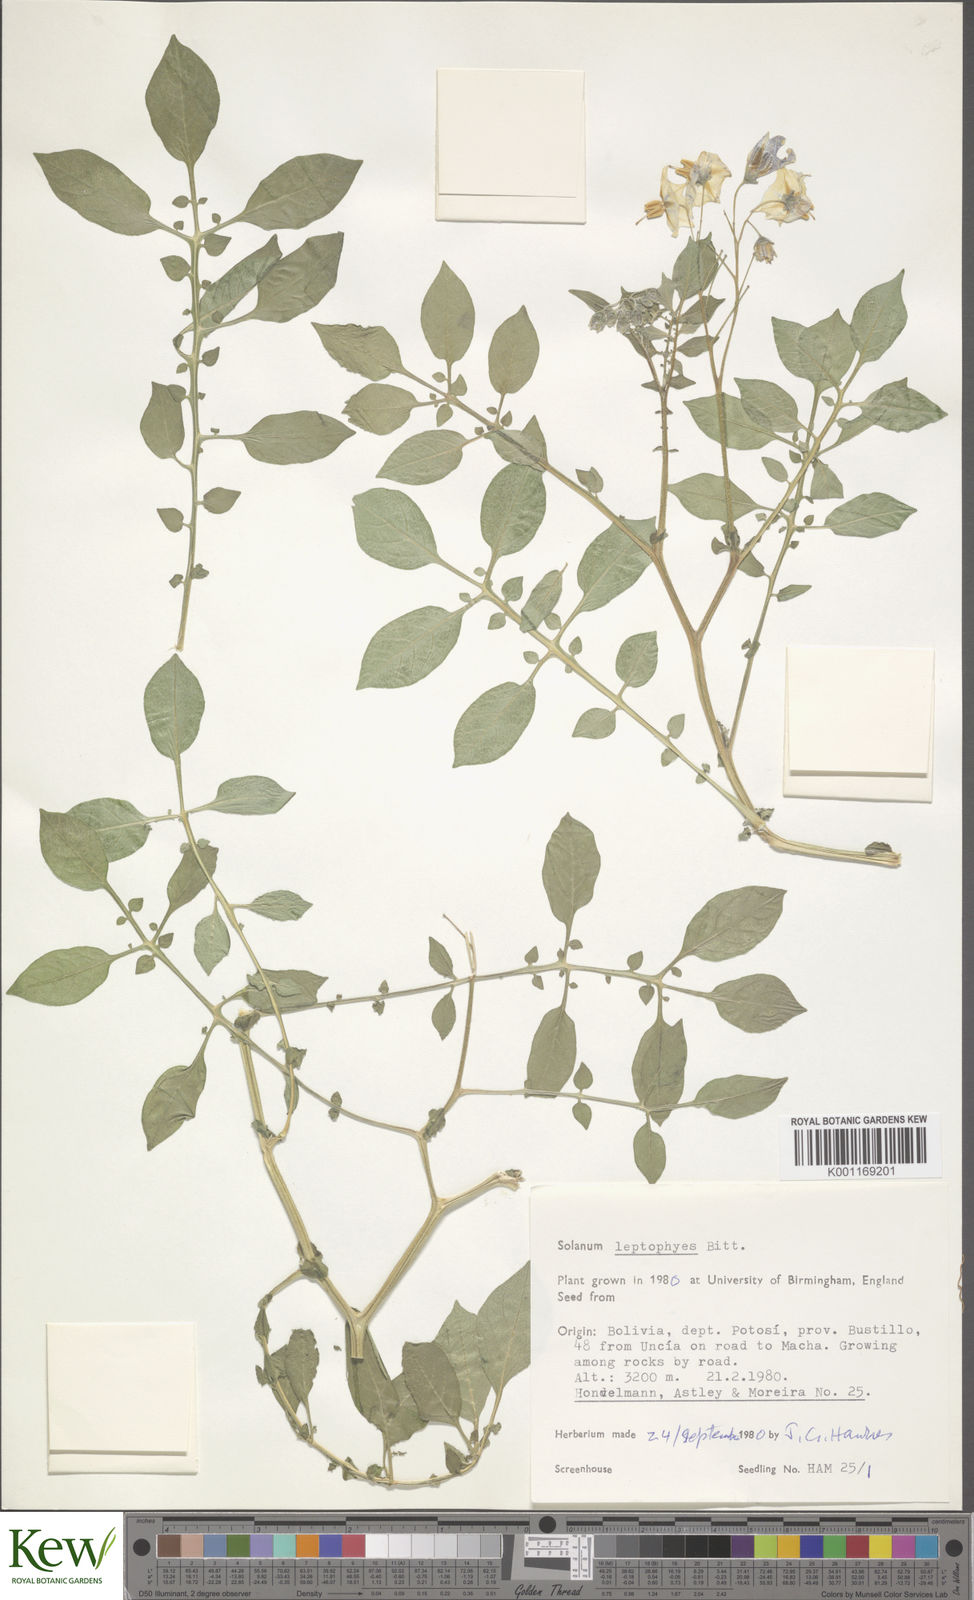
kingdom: Plantae
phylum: Tracheophyta
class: Magnoliopsida
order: Solanales
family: Solanaceae
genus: Solanum
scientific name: Solanum brevicaule
